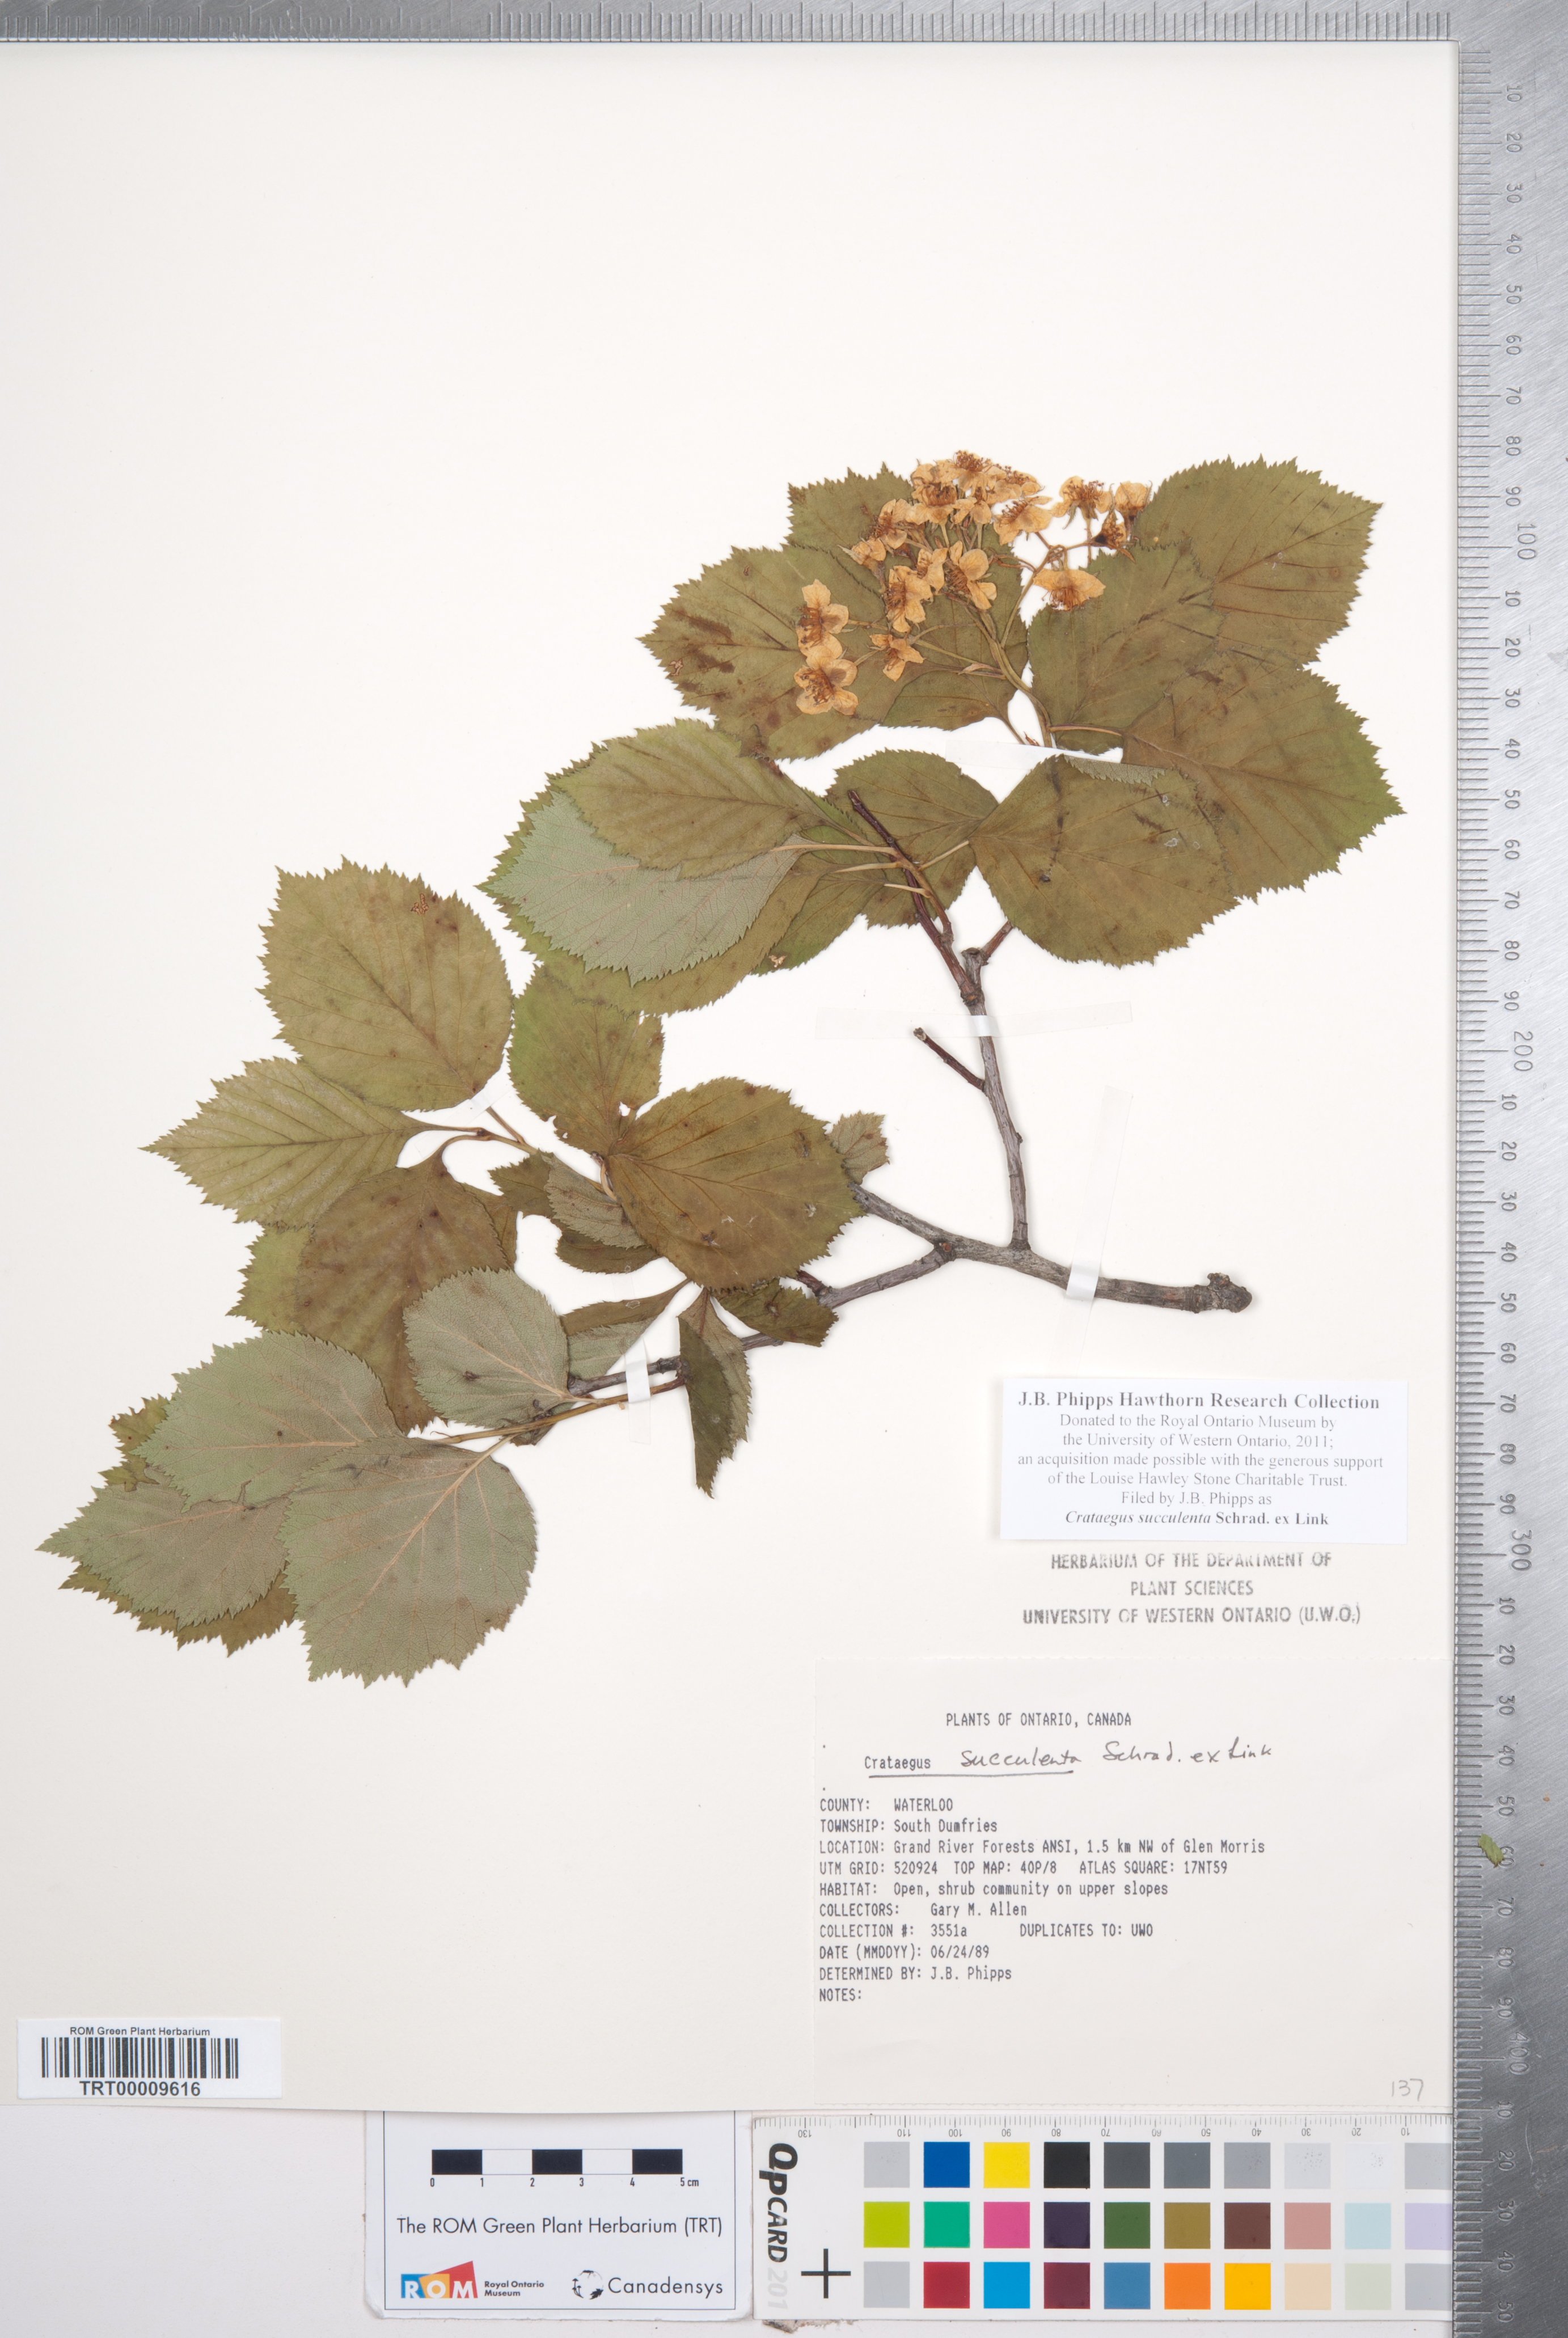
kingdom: Plantae
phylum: Tracheophyta
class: Magnoliopsida
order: Rosales
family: Rosaceae
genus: Crataegus
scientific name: Crataegus succulenta
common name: Fleshy hawthorn
